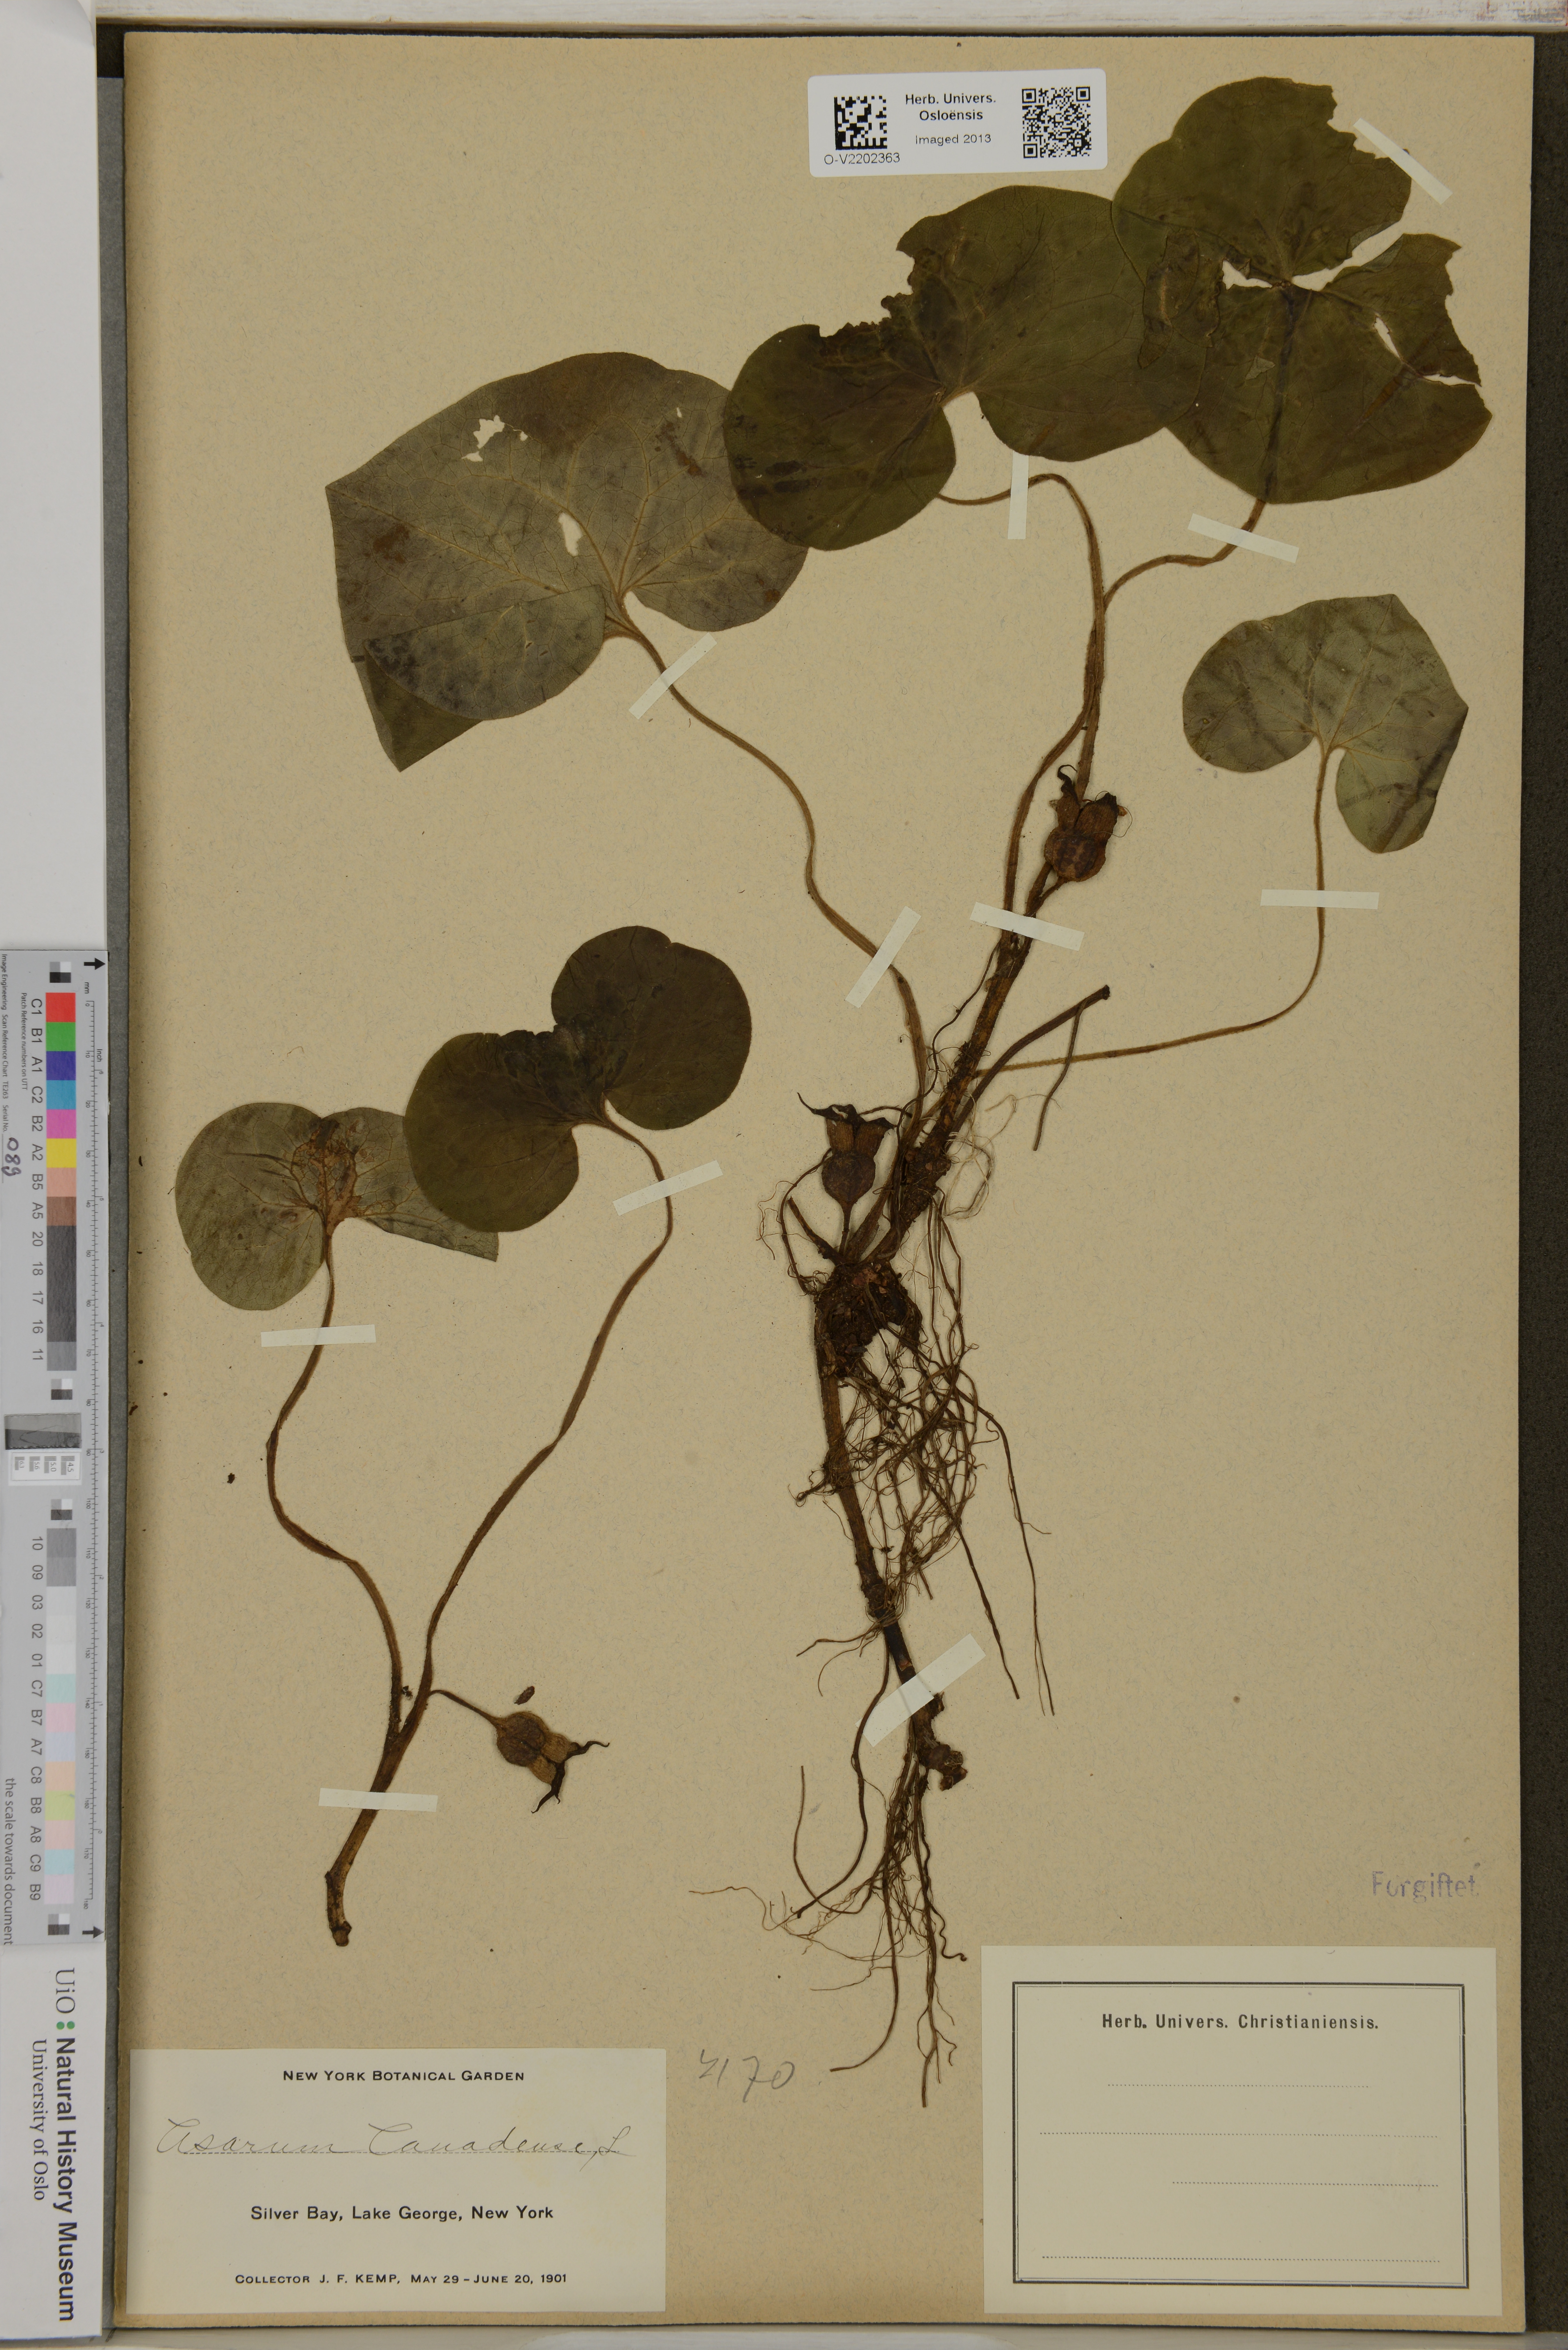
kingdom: Plantae
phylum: Tracheophyta
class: Magnoliopsida
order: Piperales
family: Aristolochiaceae
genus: Asarum
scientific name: Asarum canadense
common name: Wild ginger
